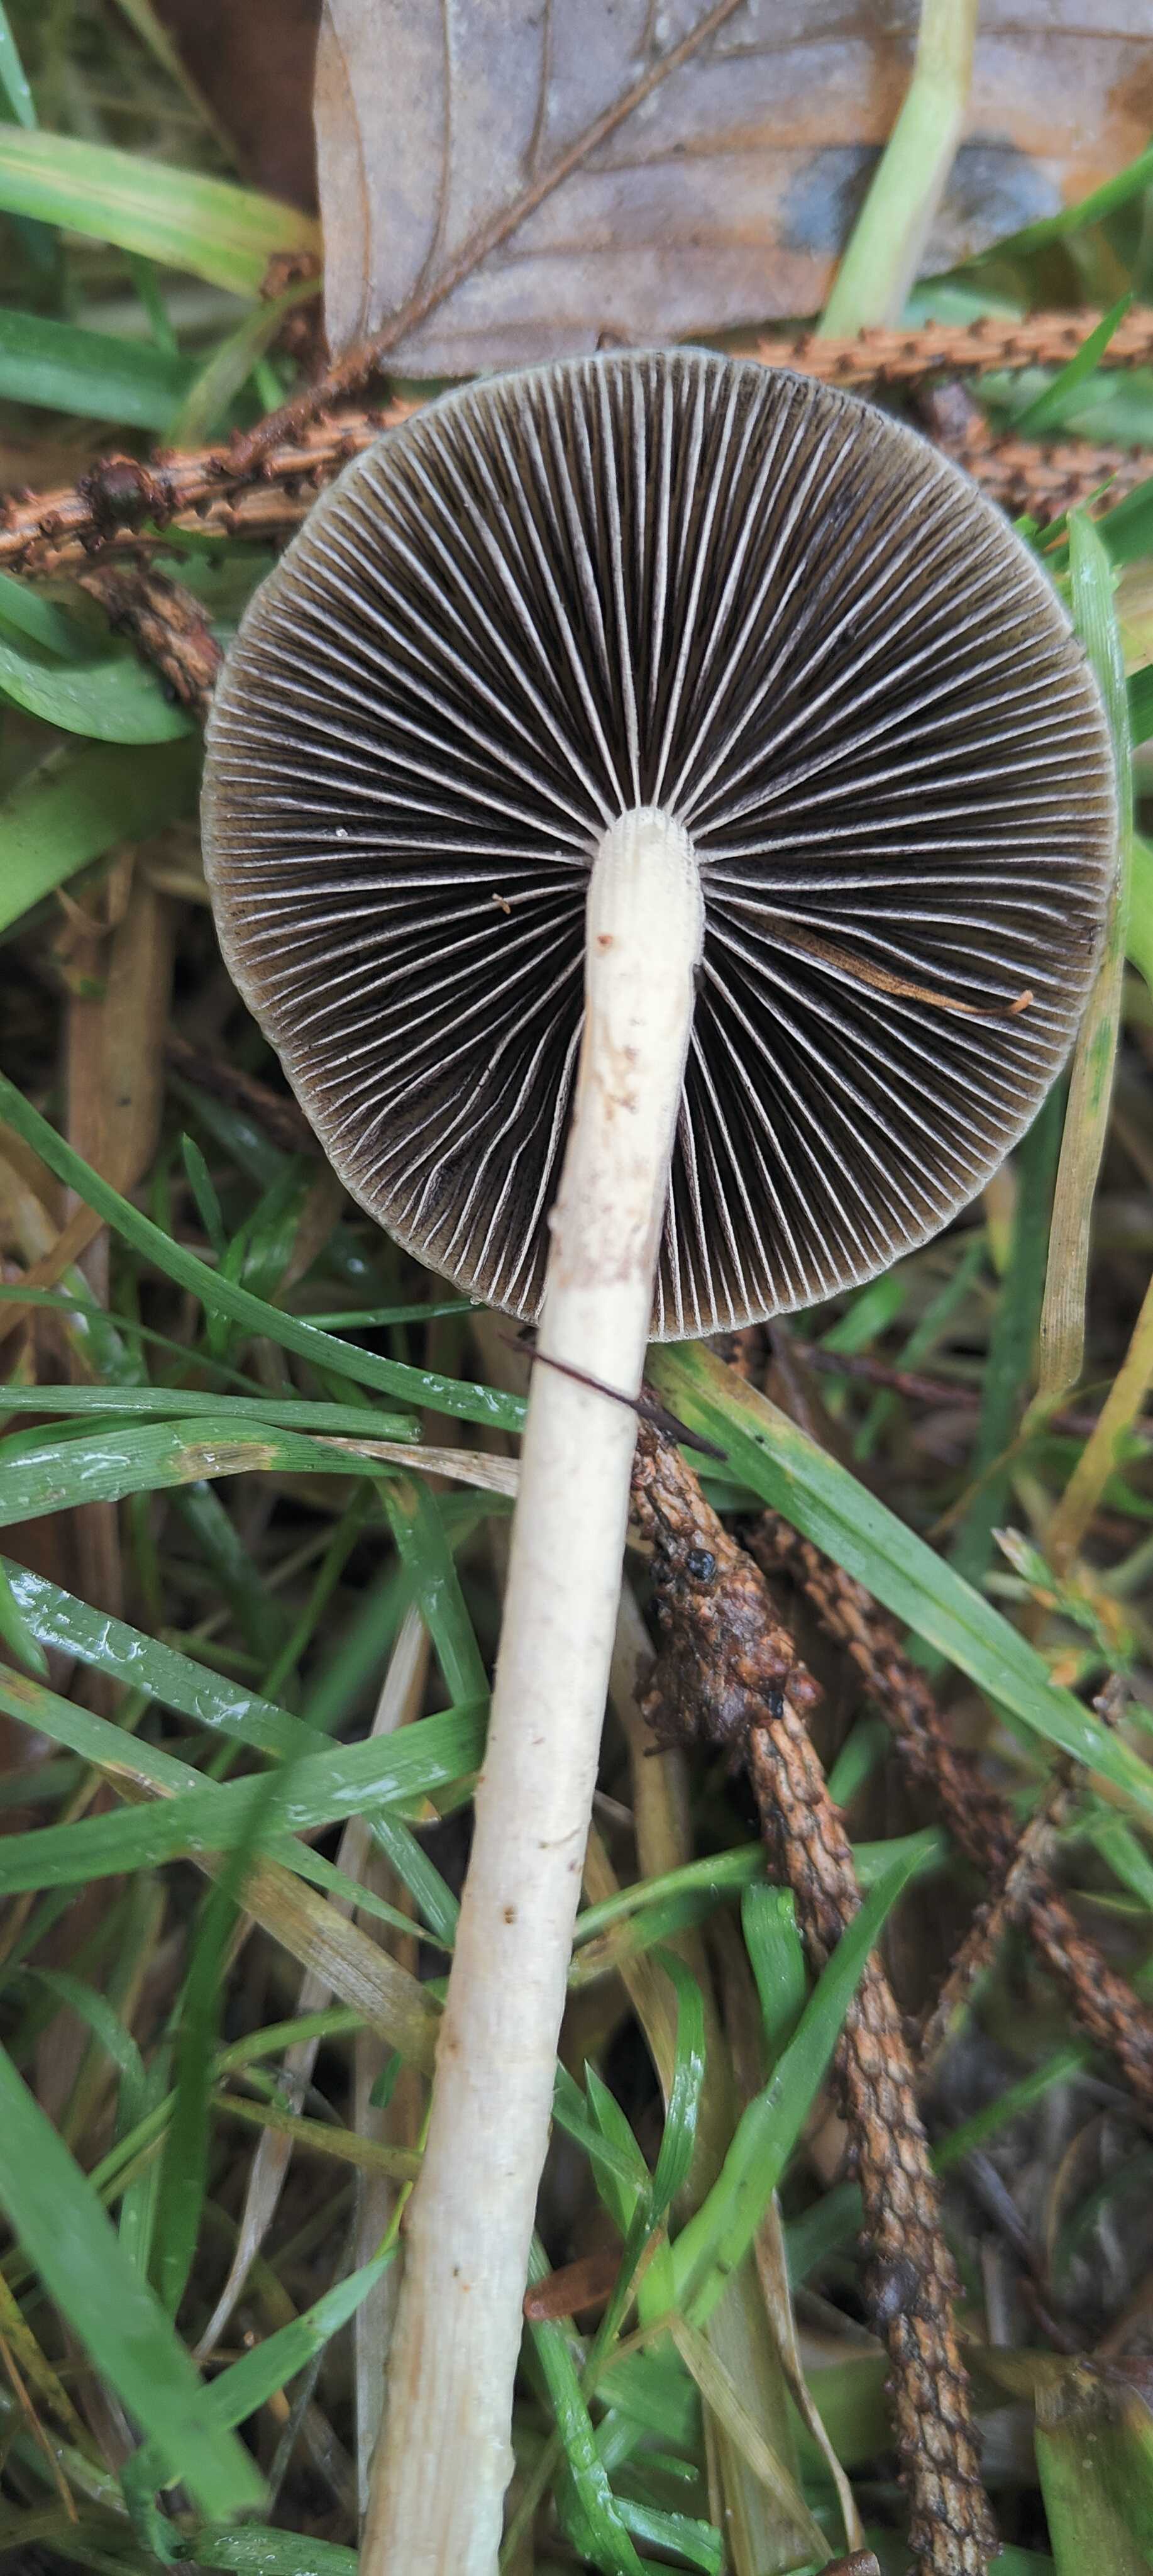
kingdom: Fungi
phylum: Basidiomycota
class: Agaricomycetes
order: Agaricales
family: Strophariaceae
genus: Protostropharia
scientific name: Protostropharia semiglobata
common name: halvkugleformet bredblad
